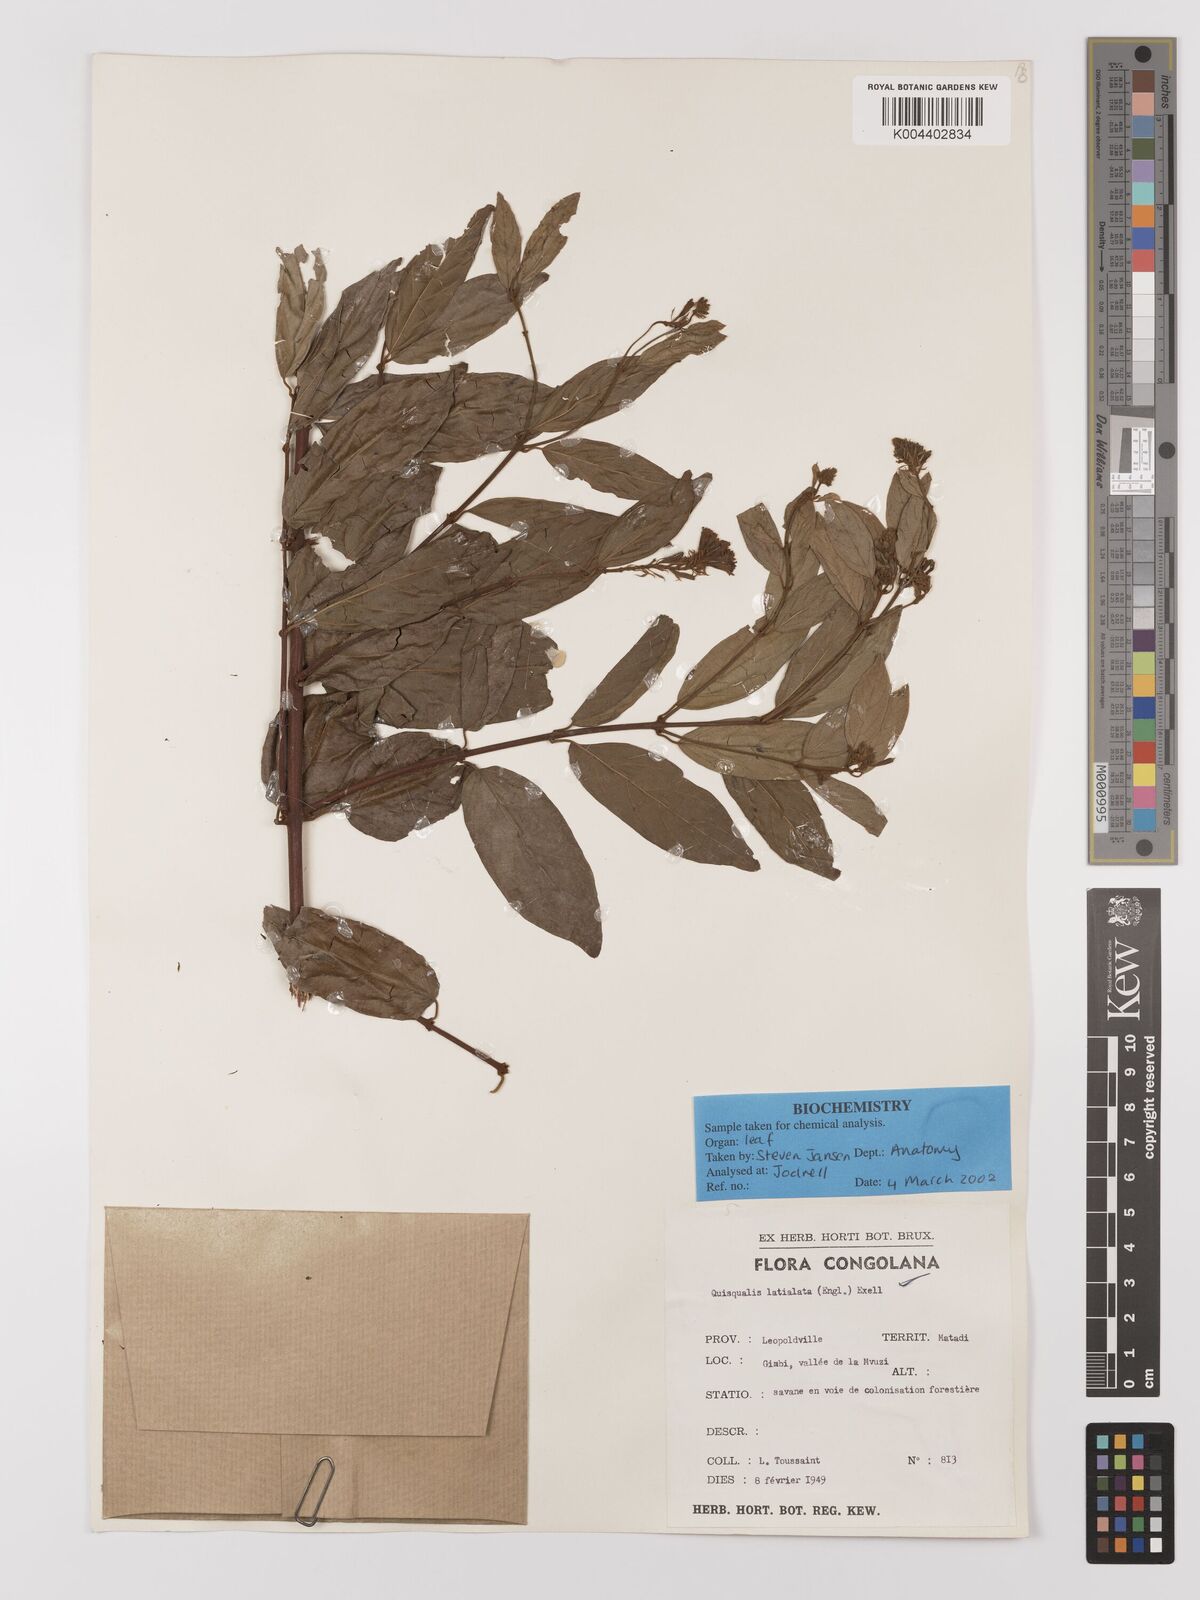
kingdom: Plantae
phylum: Tracheophyta
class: Magnoliopsida
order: Myrtales
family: Combretaceae
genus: Combretum
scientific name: Combretum latialatum
